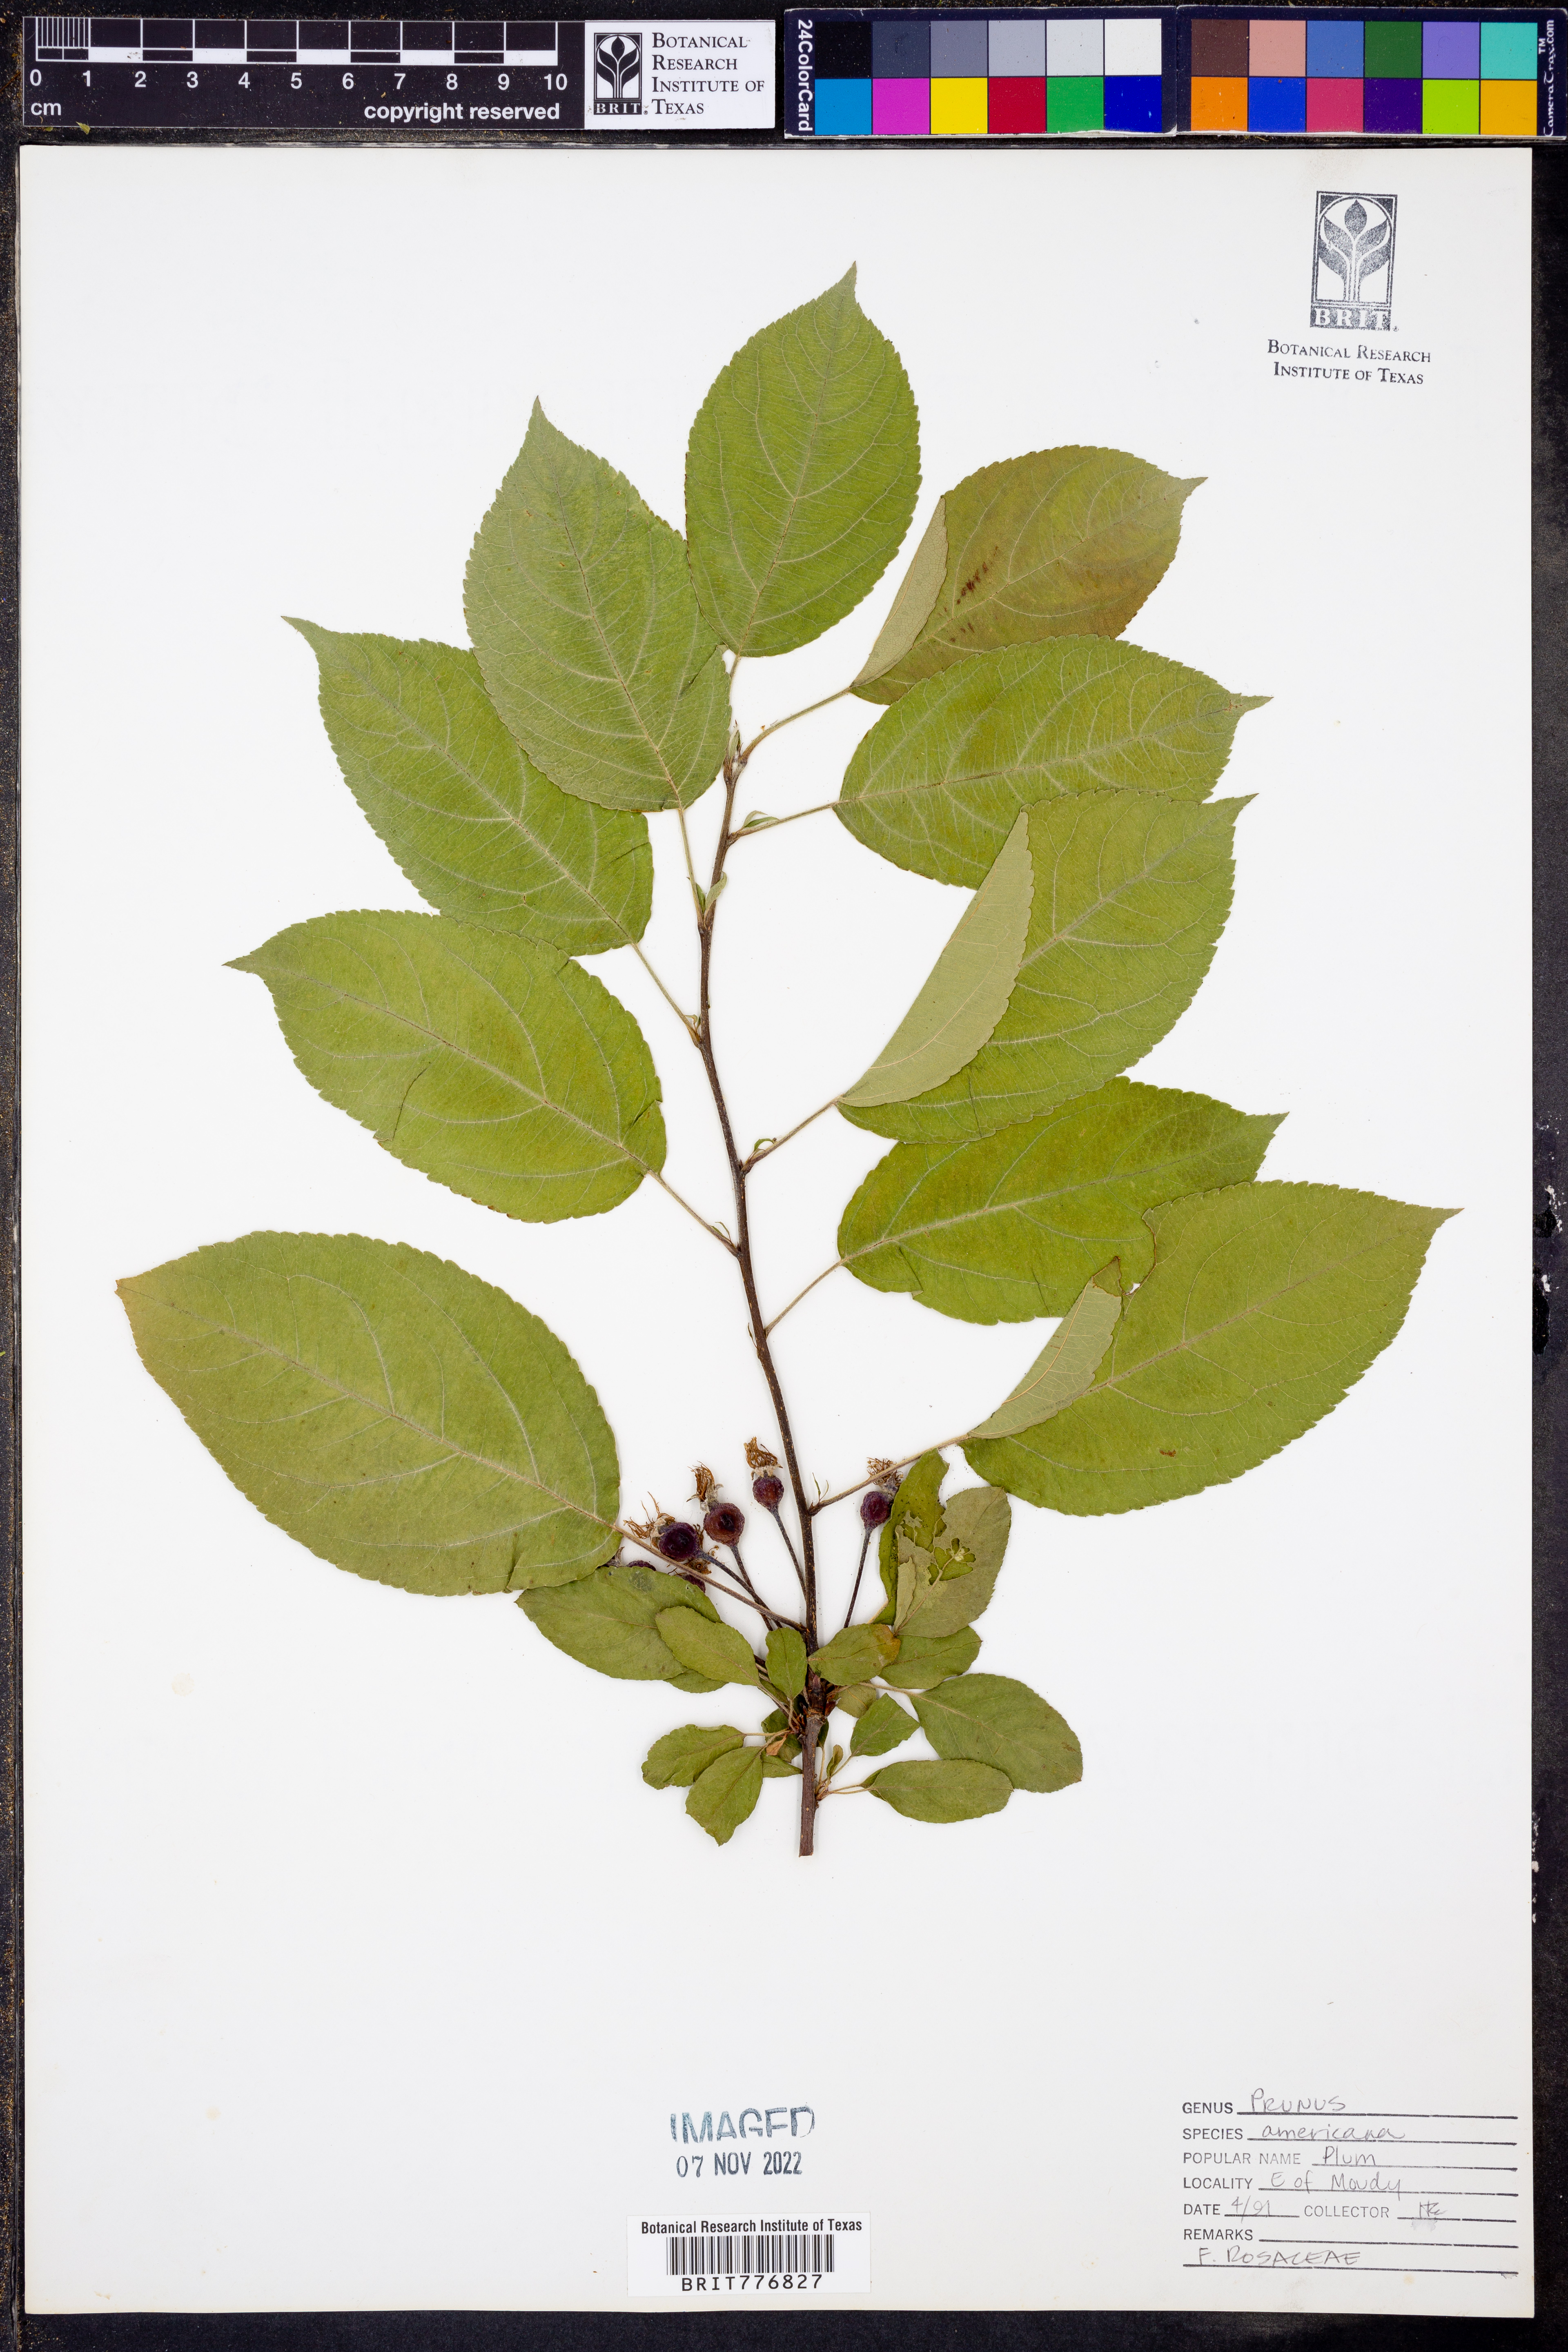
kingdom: Plantae
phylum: Tracheophyta
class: Magnoliopsida
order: Rosales
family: Rosaceae
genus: Prunus
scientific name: Prunus americana
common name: American plum
